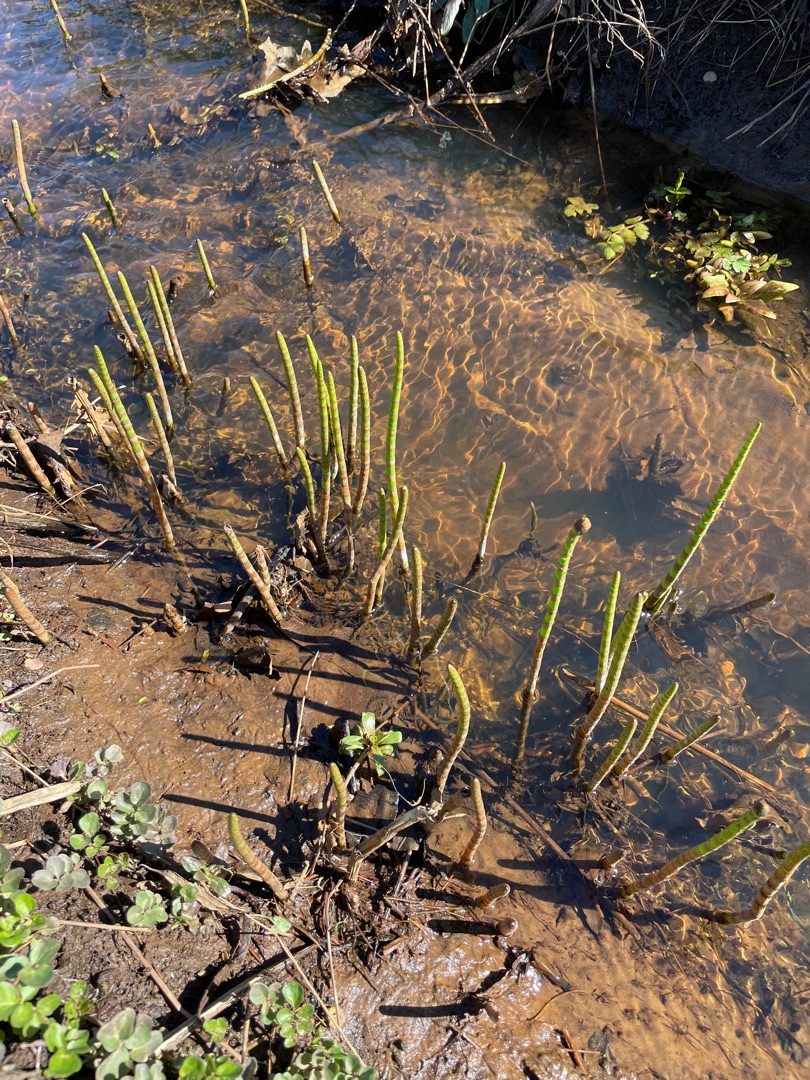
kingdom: Plantae
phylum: Tracheophyta
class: Polypodiopsida
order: Equisetales
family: Equisetaceae
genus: Equisetum
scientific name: Equisetum fluviatile
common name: Dynd-padderok
